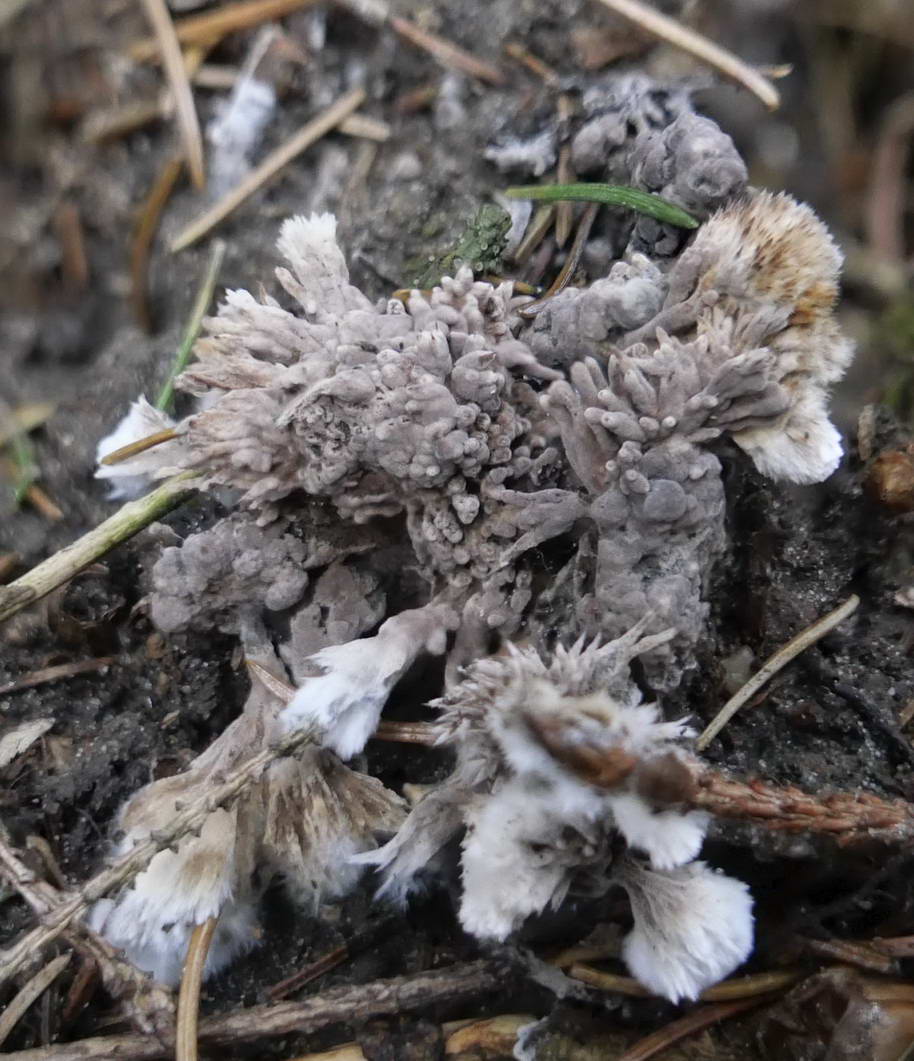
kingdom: Fungi
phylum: Basidiomycota
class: Agaricomycetes
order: Thelephorales
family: Thelephoraceae
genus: Thelephora
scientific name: Thelephora penicillata
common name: fladtrådt frynsesvamp
